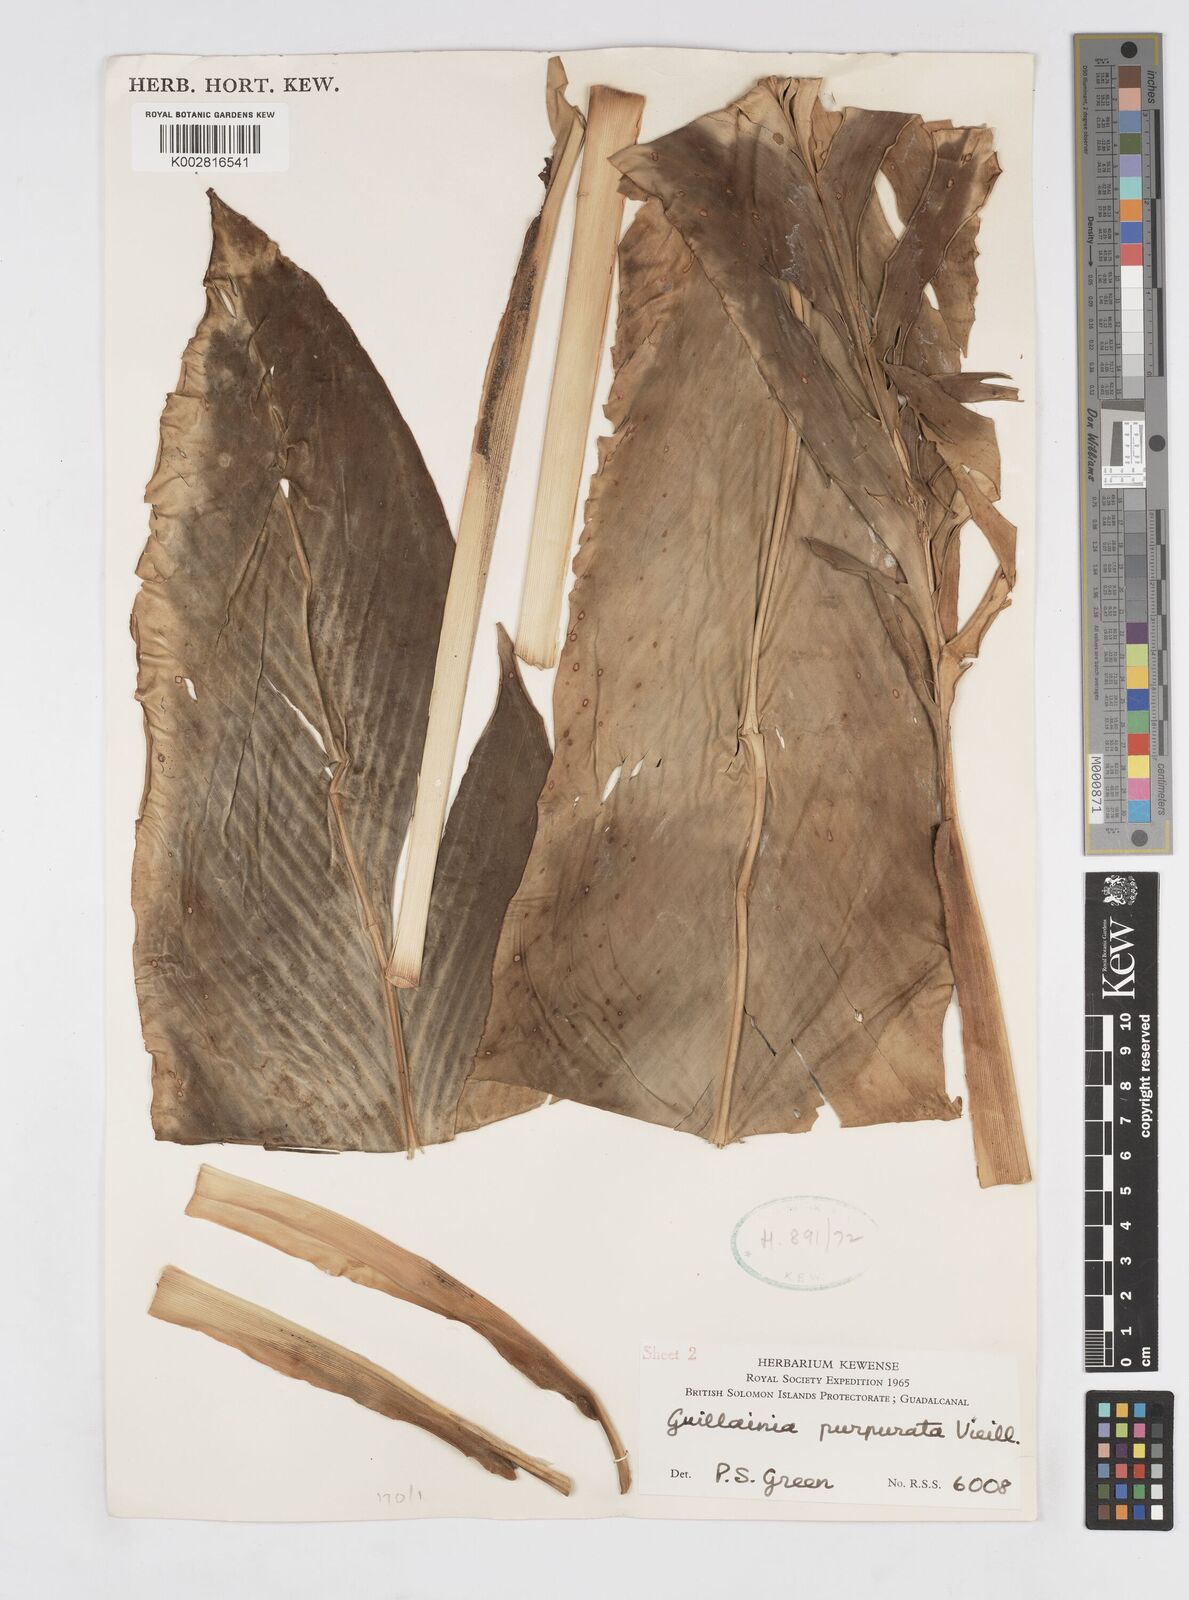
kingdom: Plantae
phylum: Tracheophyta
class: Liliopsida
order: Zingiberales
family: Zingiberaceae
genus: Alpinia
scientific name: Alpinia purpurata
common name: Red ginger
